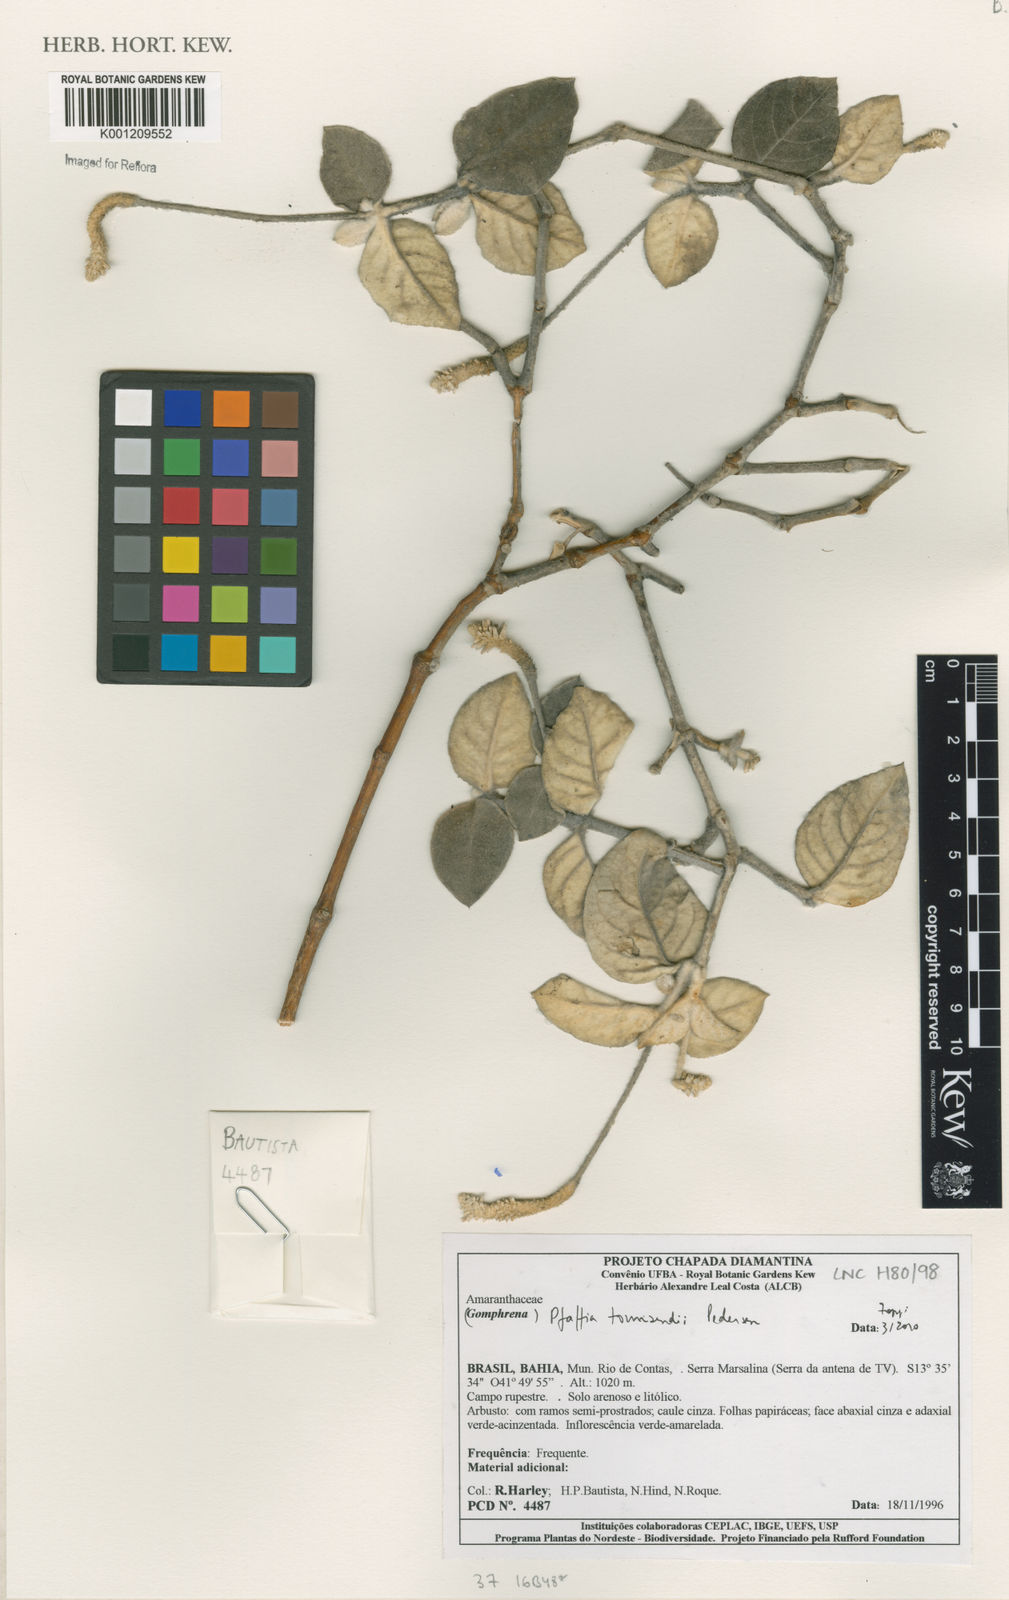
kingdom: Plantae
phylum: Tracheophyta
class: Magnoliopsida
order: Caryophyllales
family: Amaranthaceae
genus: Pfaffia
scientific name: Pfaffia townsendii
